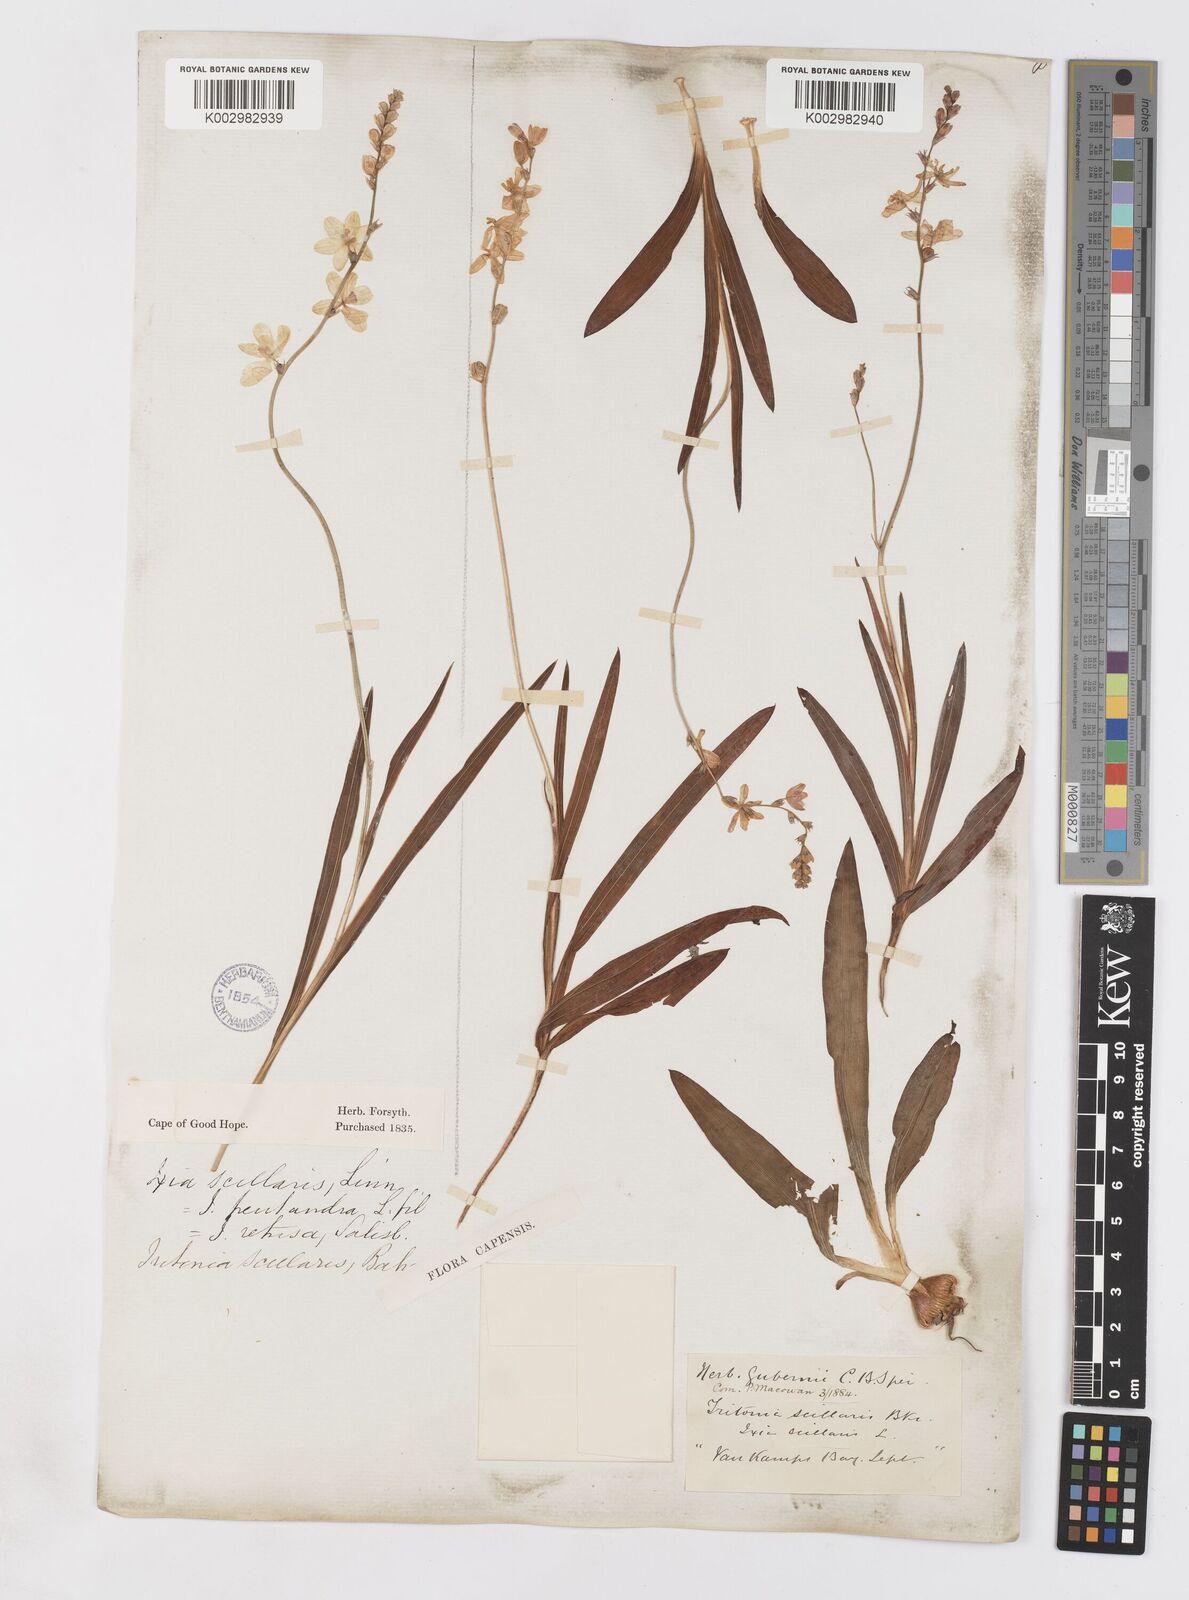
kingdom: Plantae
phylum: Tracheophyta
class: Liliopsida
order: Asparagales
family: Iridaceae
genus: Ixia
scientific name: Ixia scillaris
